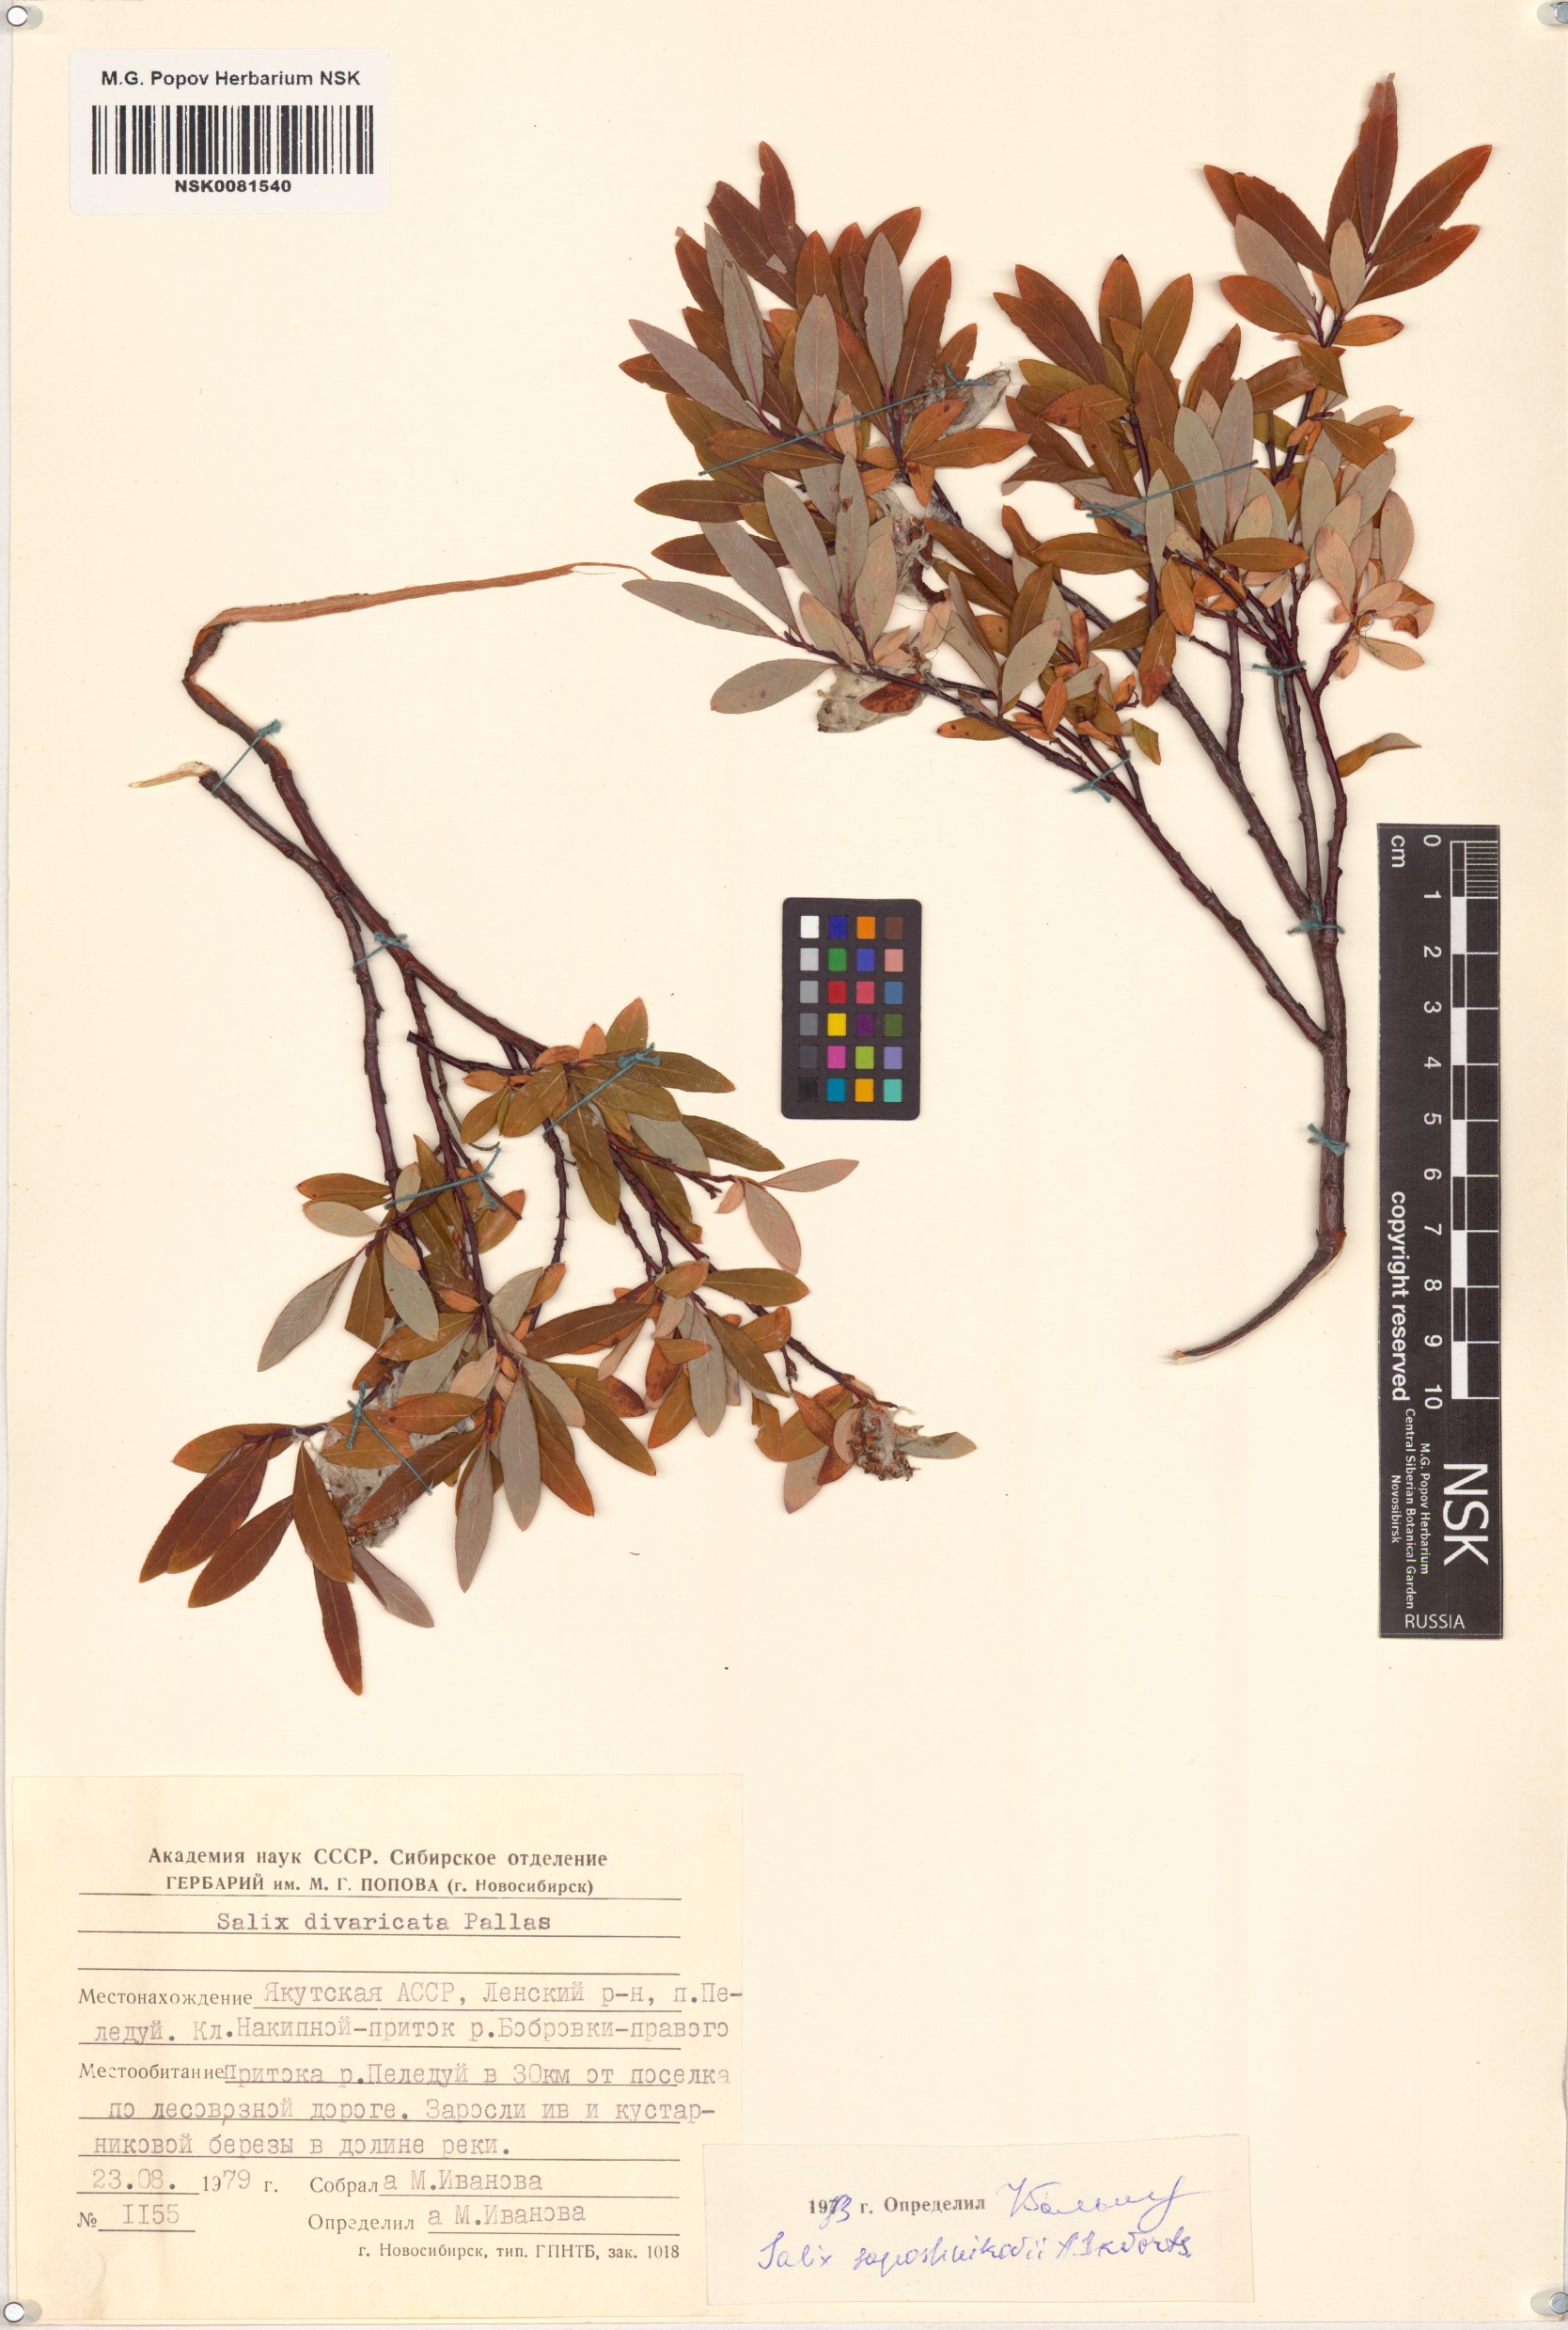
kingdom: Plantae
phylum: Tracheophyta
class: Magnoliopsida
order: Malpighiales
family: Salicaceae
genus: Salix
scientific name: Salix saposhnikovii
